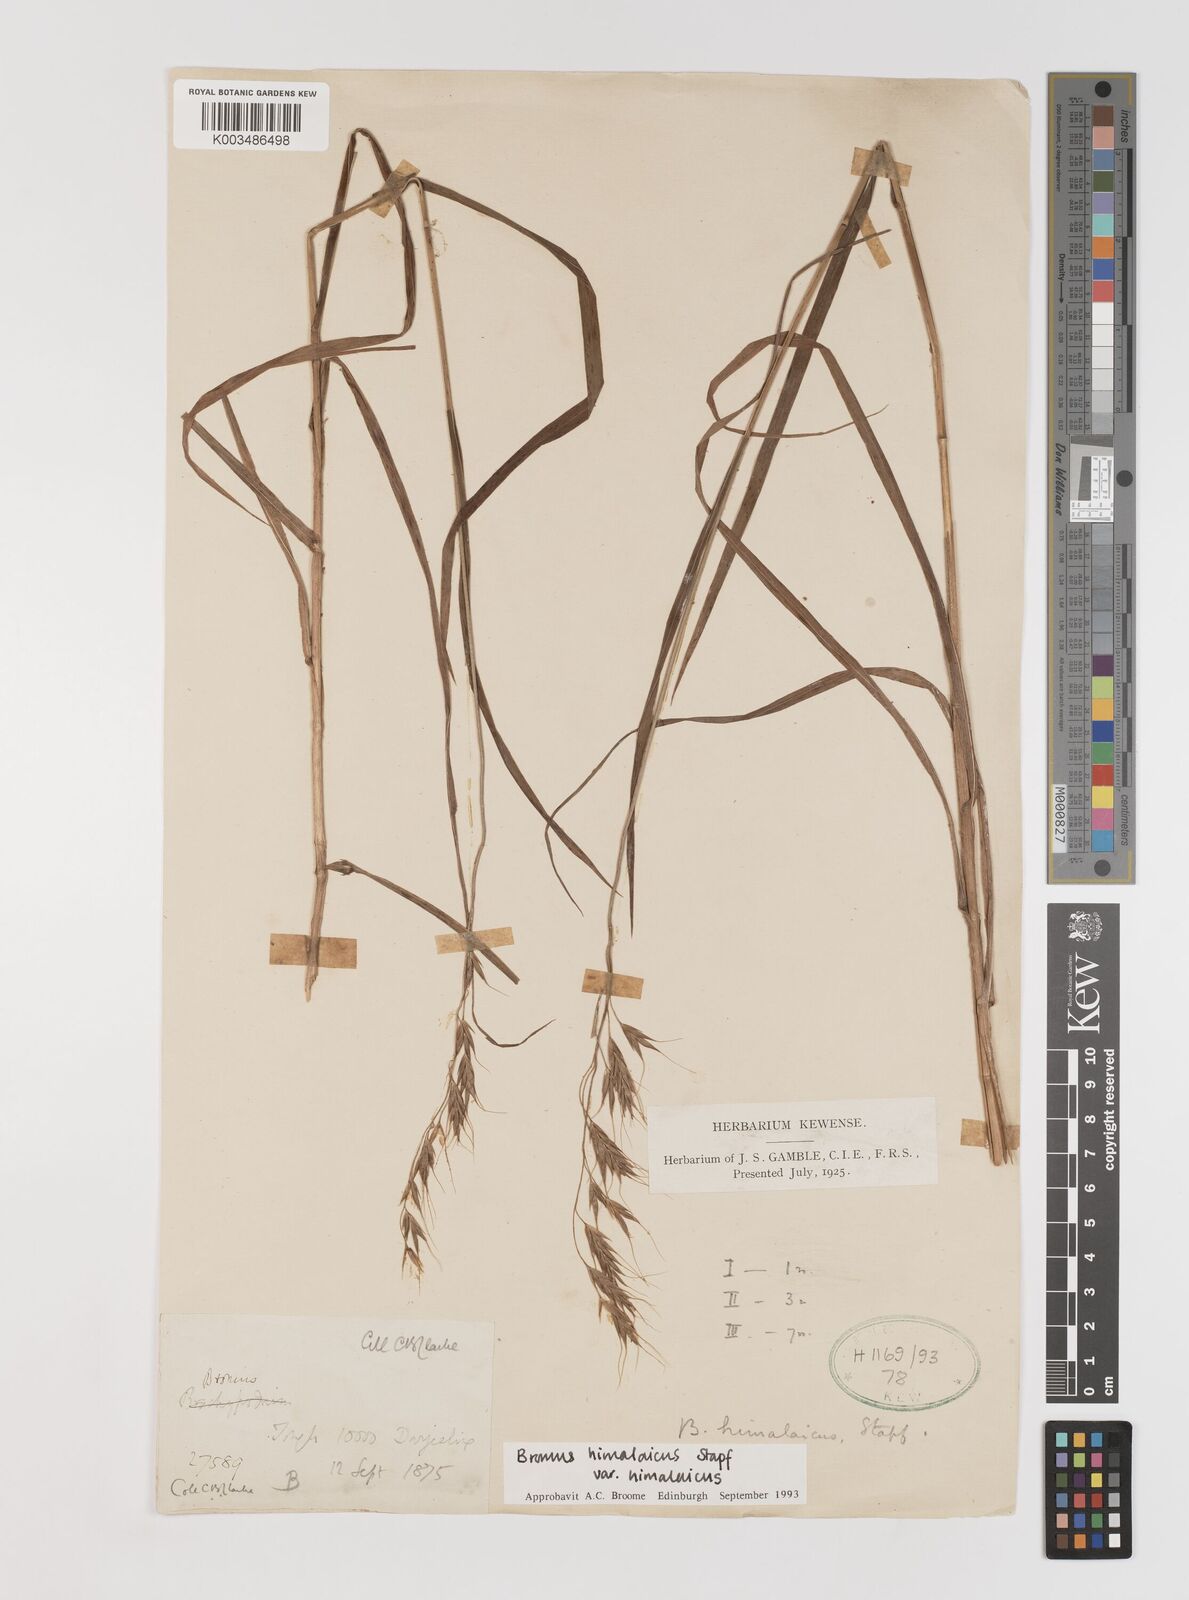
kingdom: Plantae
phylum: Tracheophyta
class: Liliopsida
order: Poales
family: Poaceae
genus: Bromus
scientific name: Bromus himalaicus
